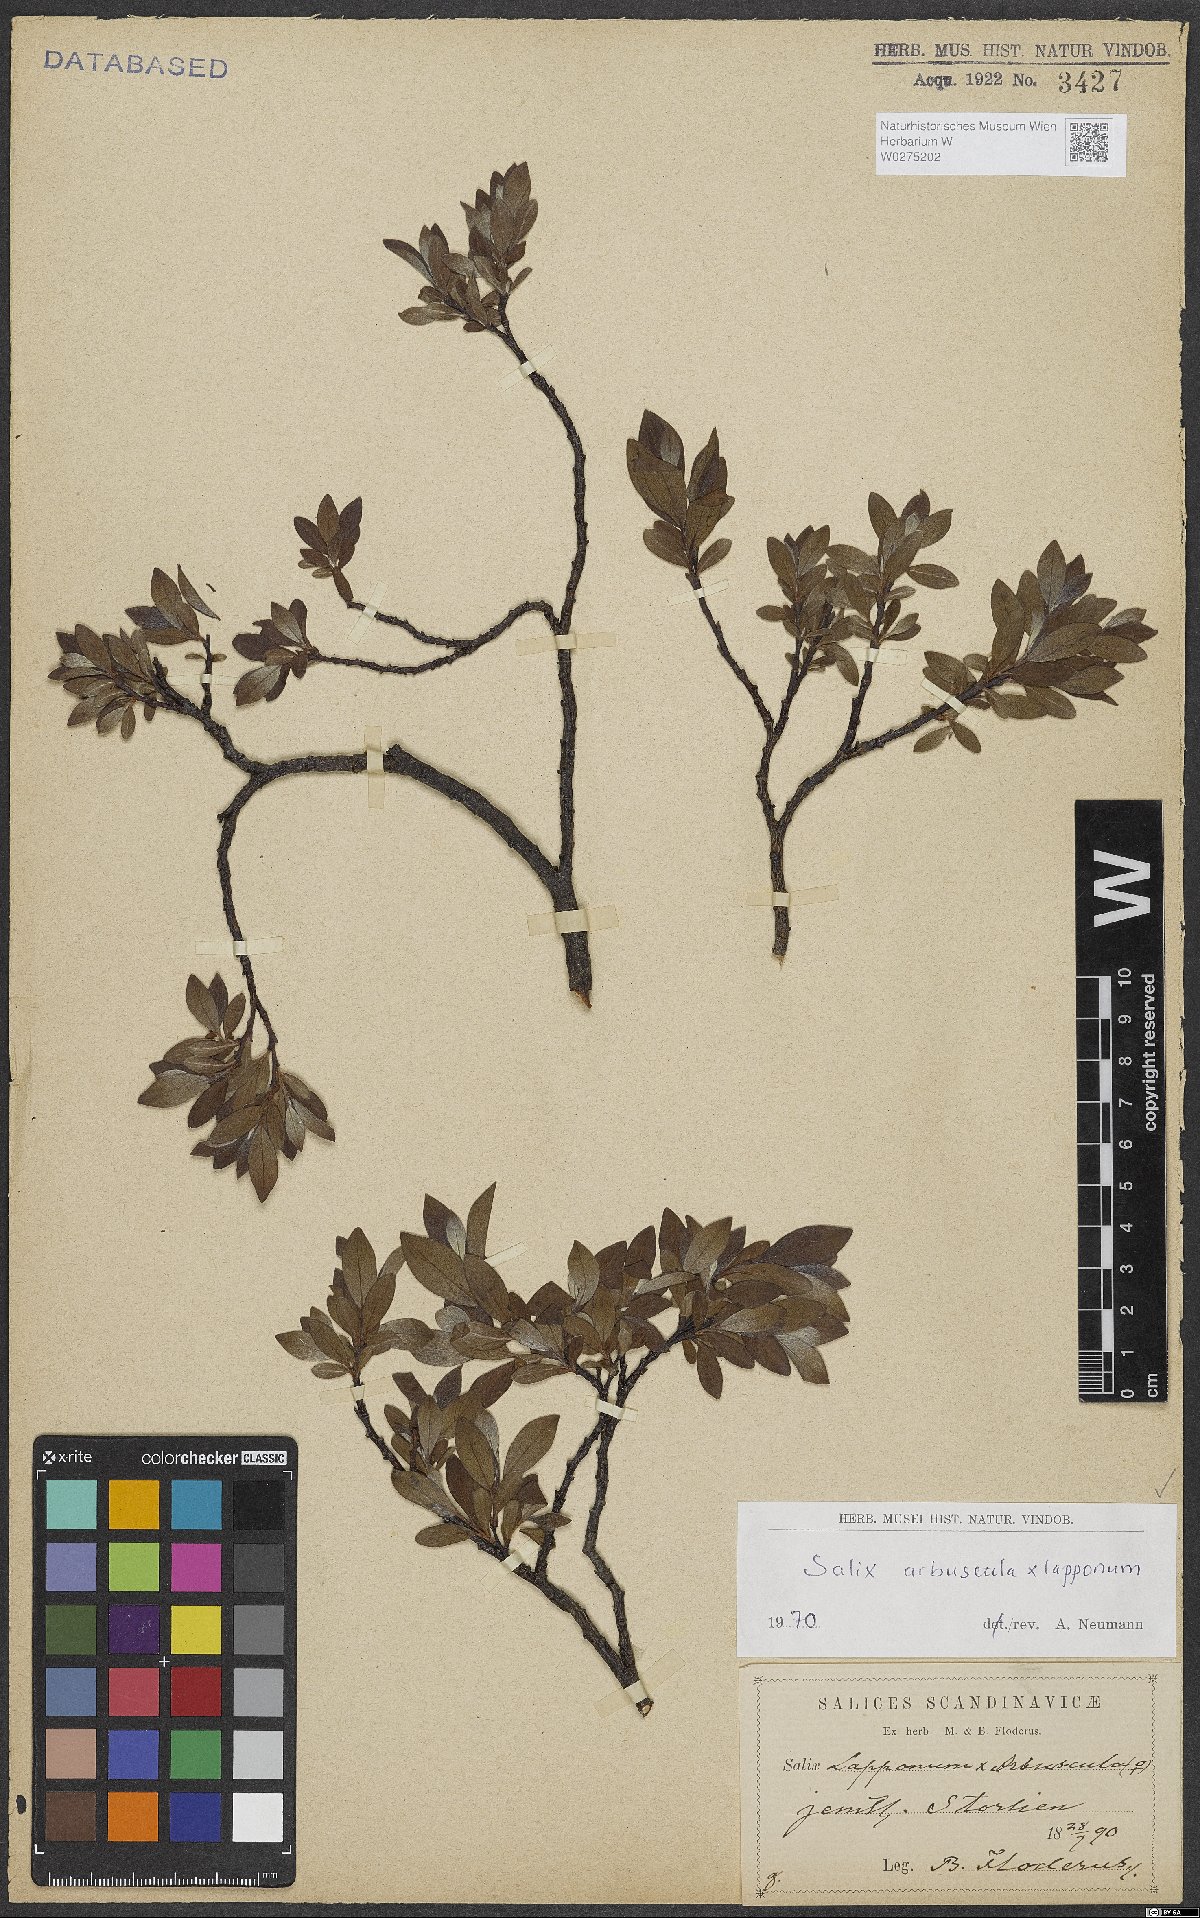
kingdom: Plantae
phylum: Tracheophyta
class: Magnoliopsida
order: Malpighiales
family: Salicaceae
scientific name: Salicaceae
